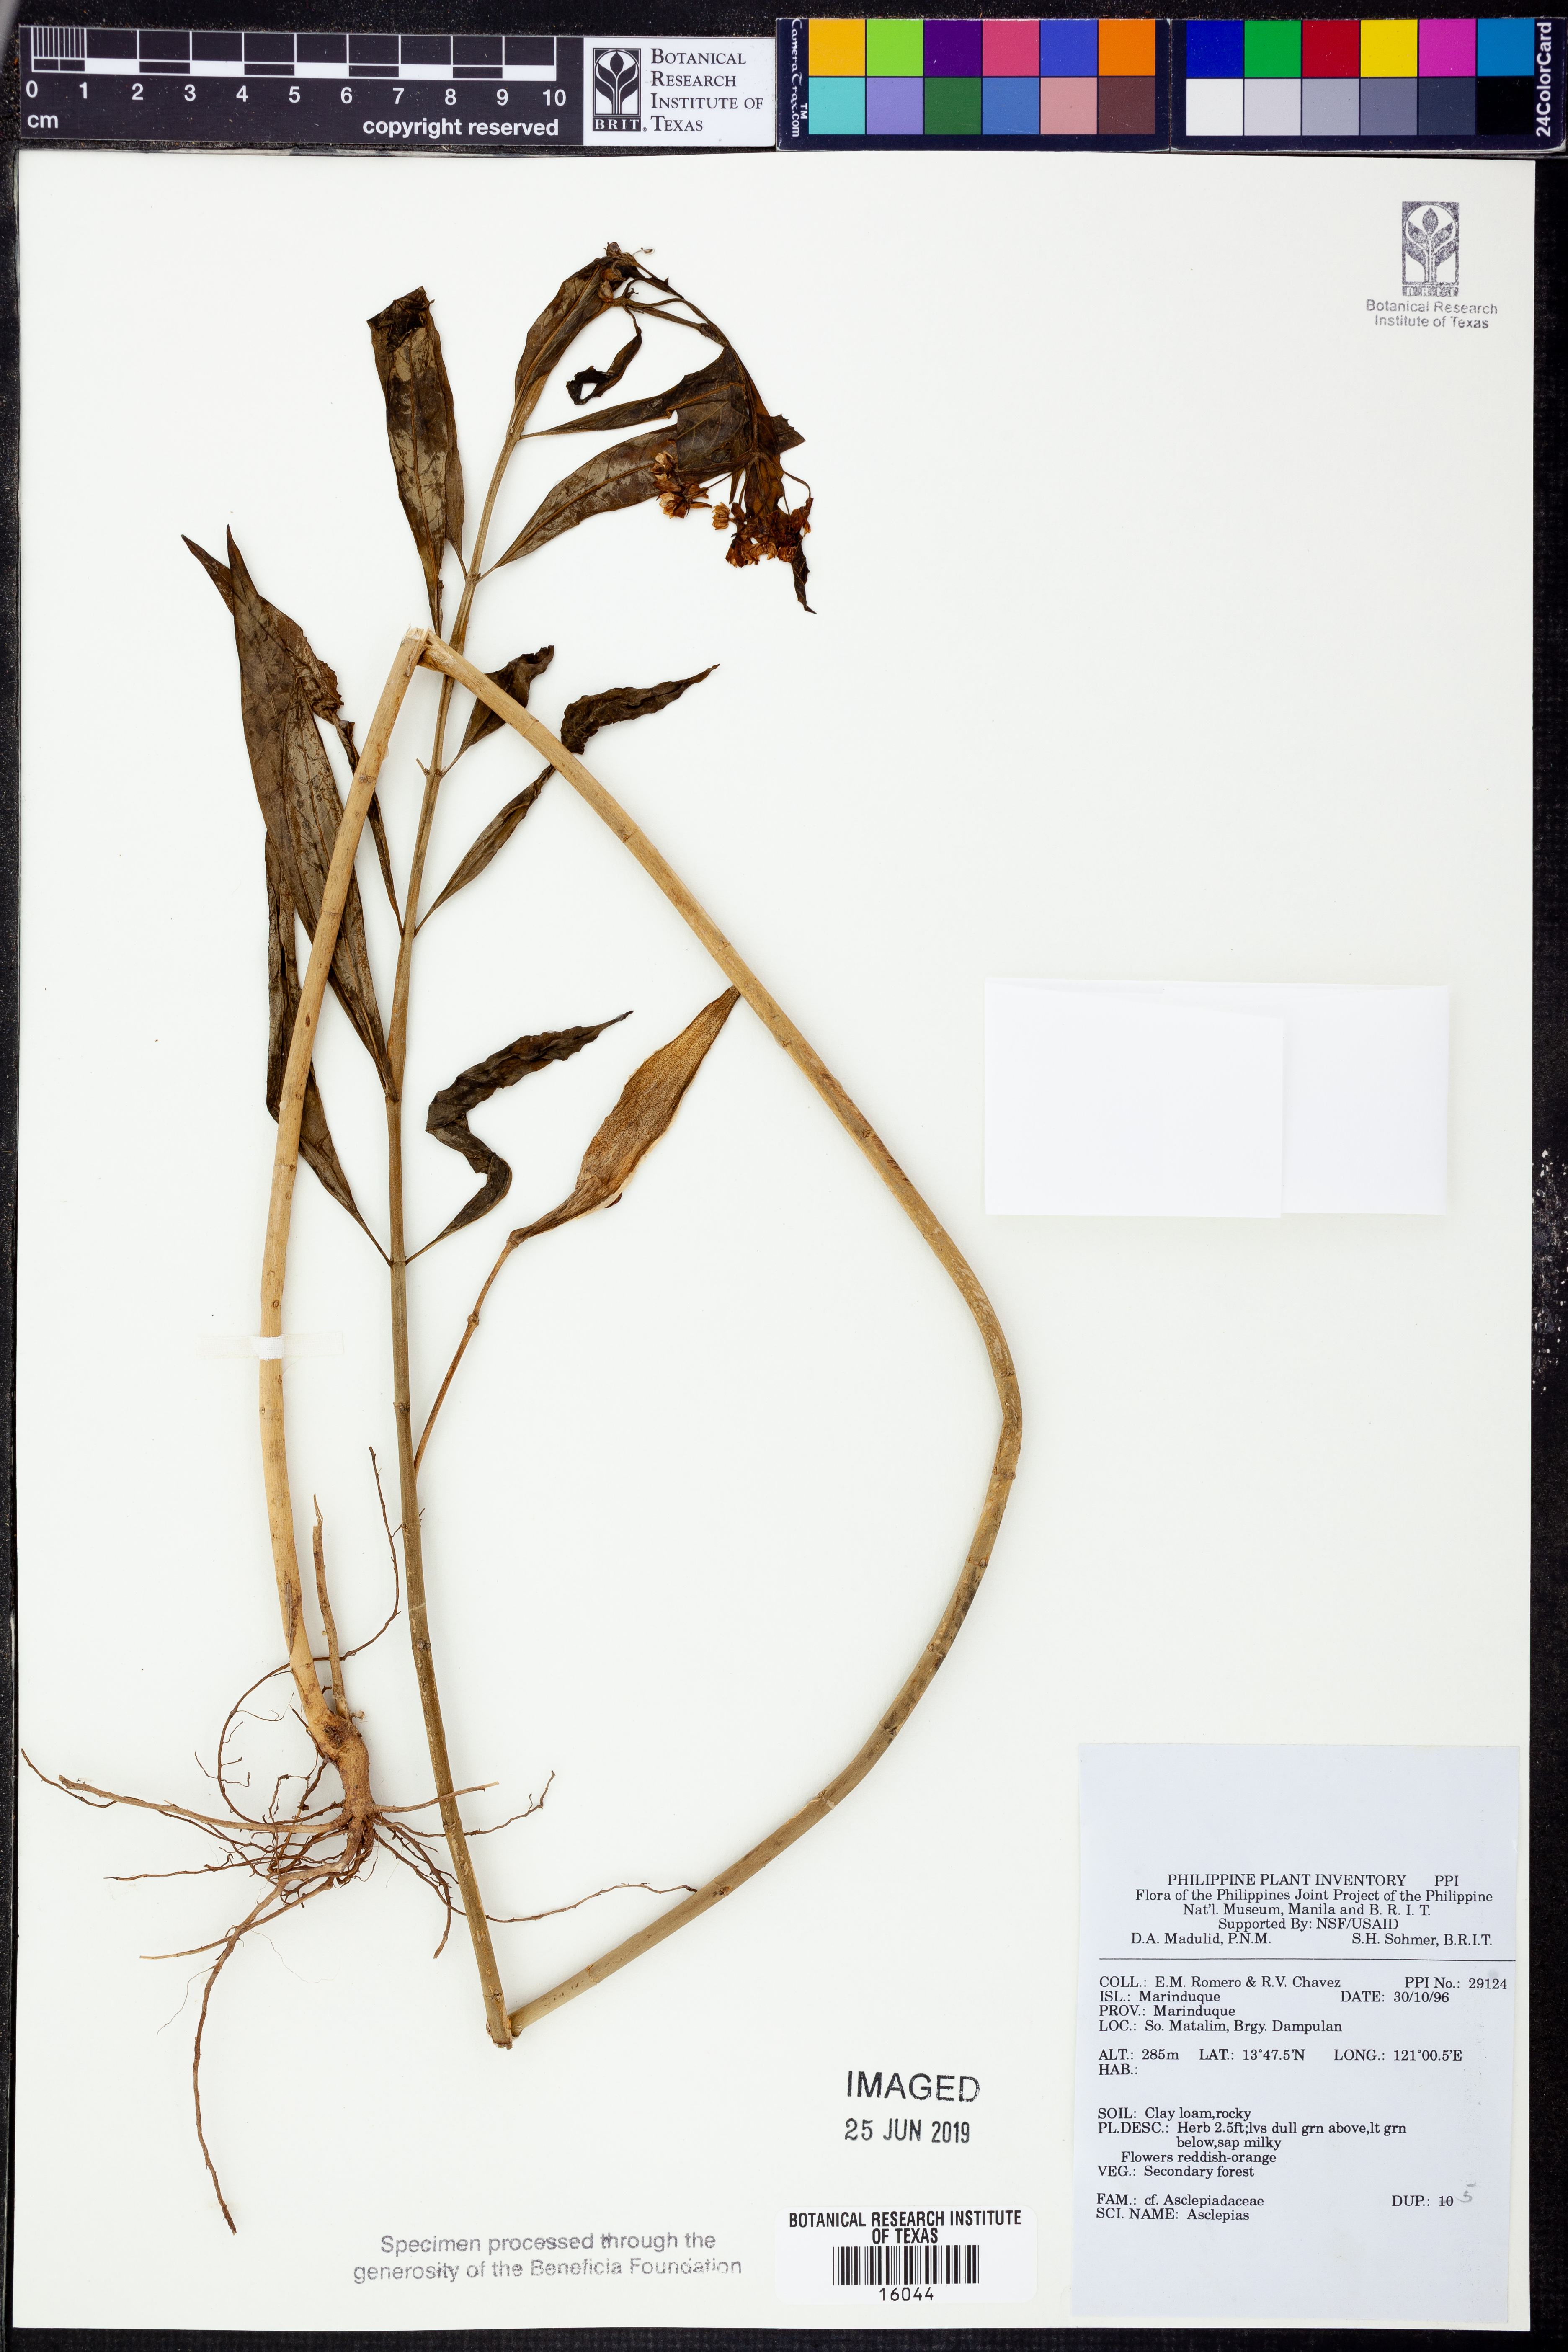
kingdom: Plantae
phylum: Tracheophyta
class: Magnoliopsida
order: Gentianales
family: Apocynaceae
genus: Asclepias
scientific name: Asclepias
